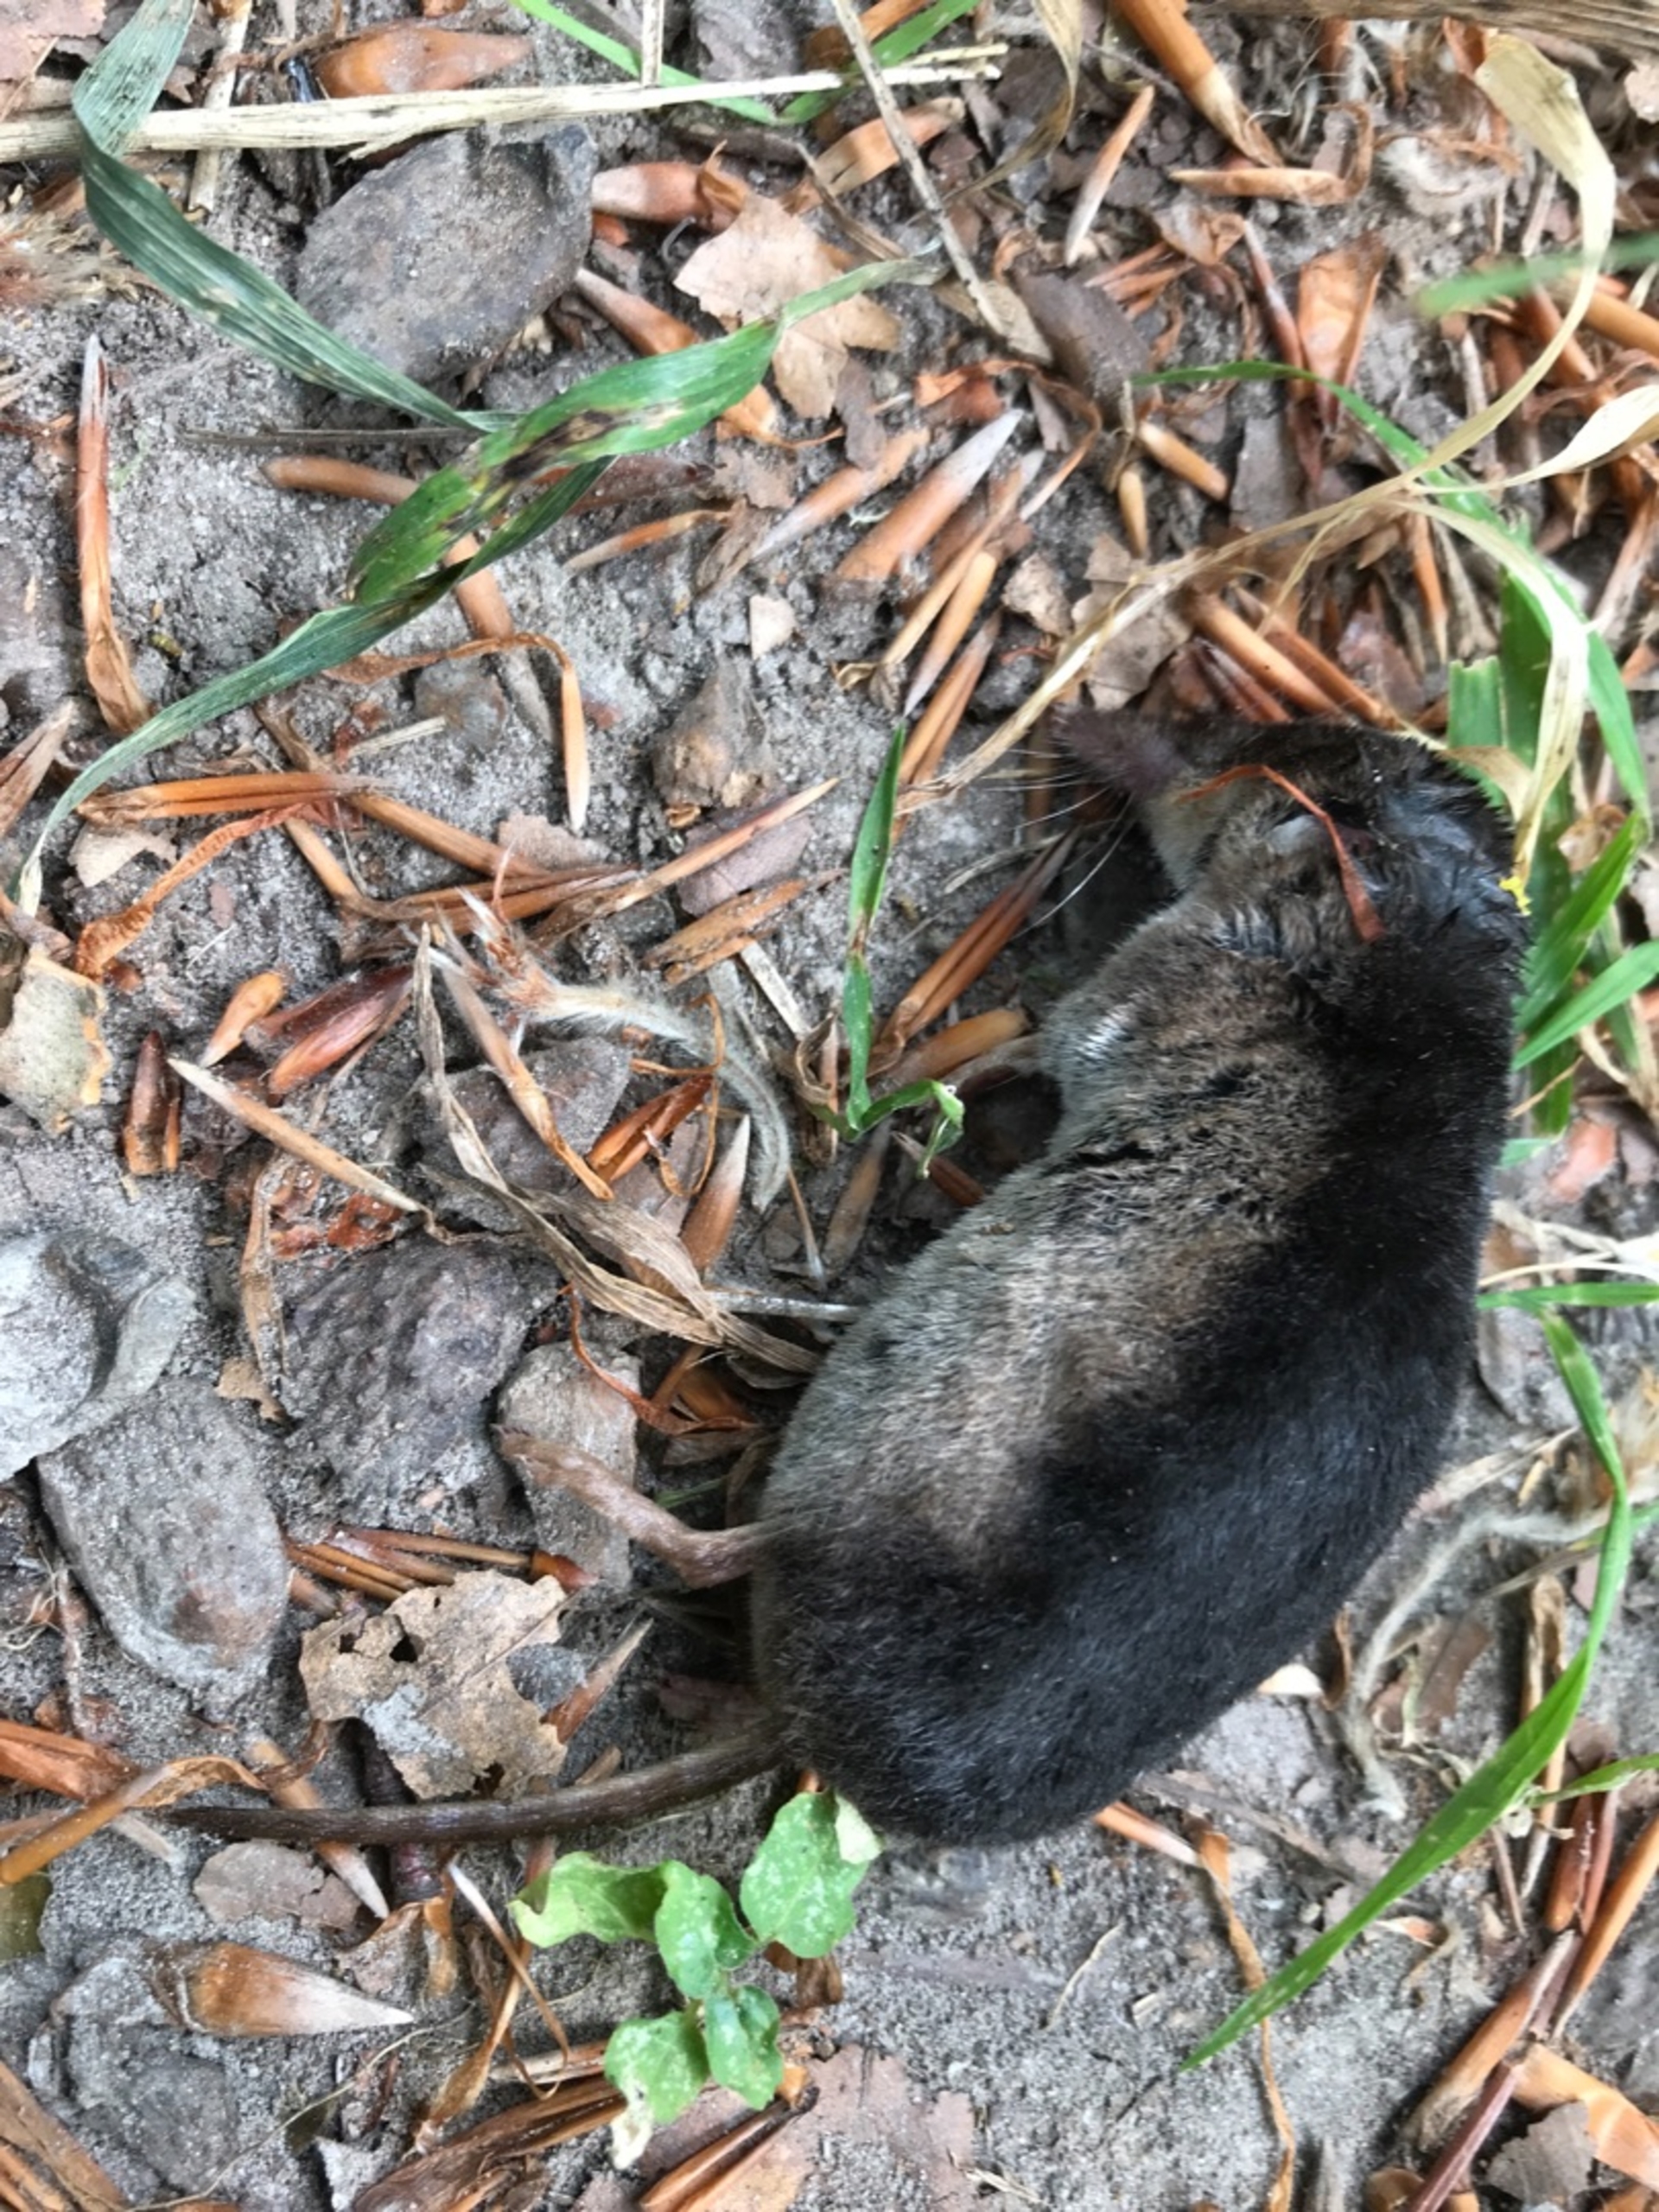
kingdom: Animalia
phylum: Chordata
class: Mammalia
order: Soricomorpha
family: Soricidae
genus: Sorex
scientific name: Sorex araneus
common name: Almindelig spidsmus
